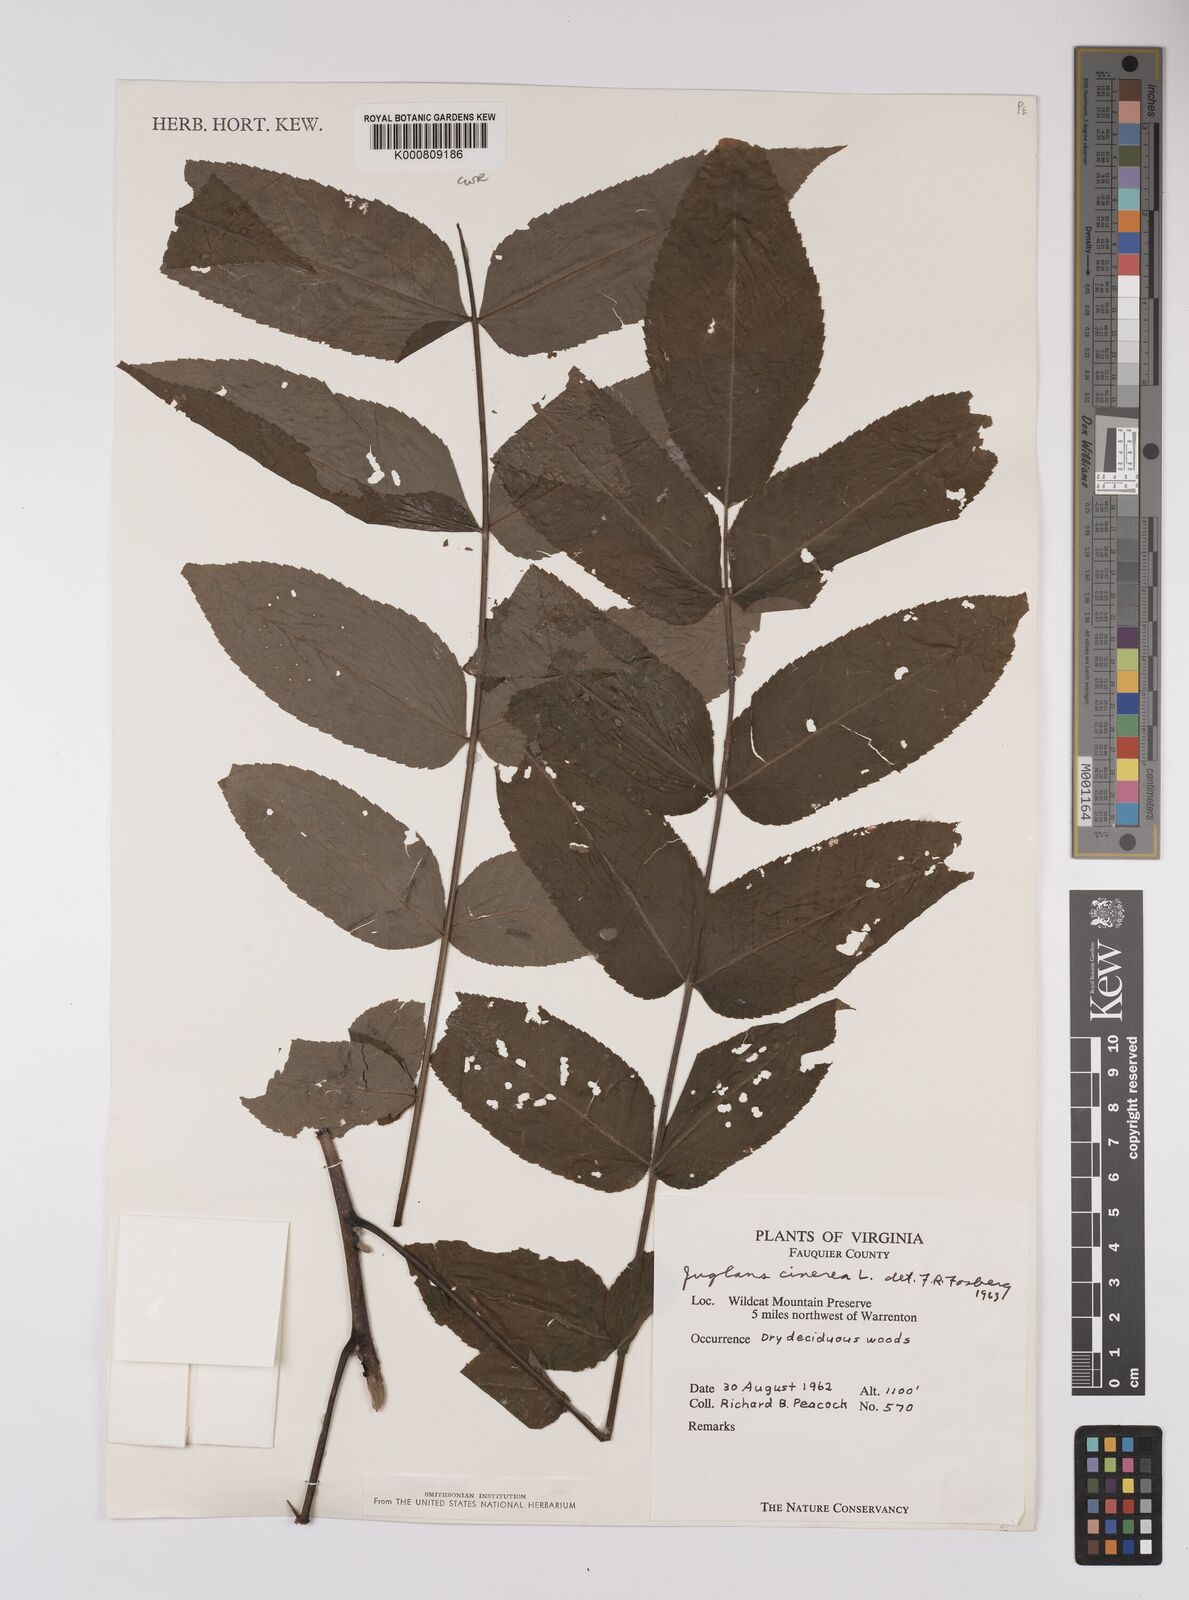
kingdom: Plantae
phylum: Tracheophyta
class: Magnoliopsida
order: Fagales
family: Juglandaceae
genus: Juglans
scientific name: Juglans cinerea
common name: Butternut
